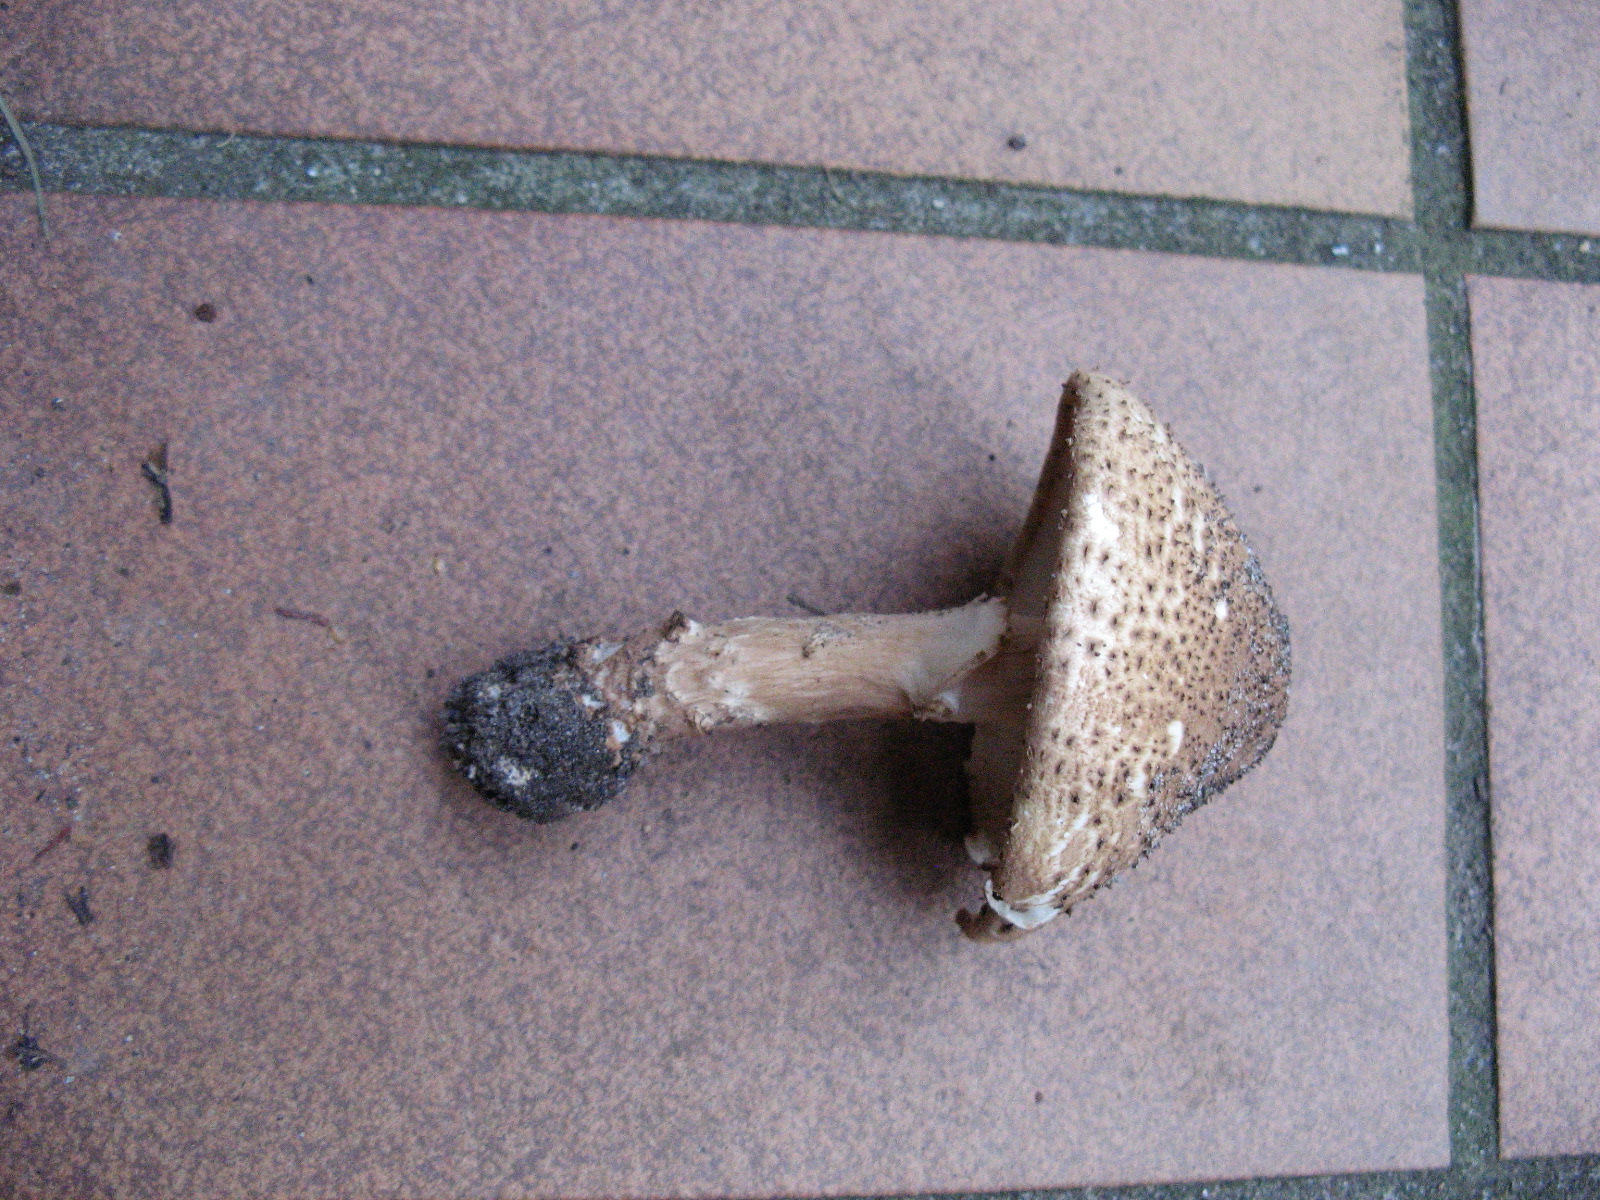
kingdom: Fungi
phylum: Basidiomycota
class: Agaricomycetes
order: Agaricales
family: Agaricaceae
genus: Echinoderma
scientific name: Echinoderma asperum
